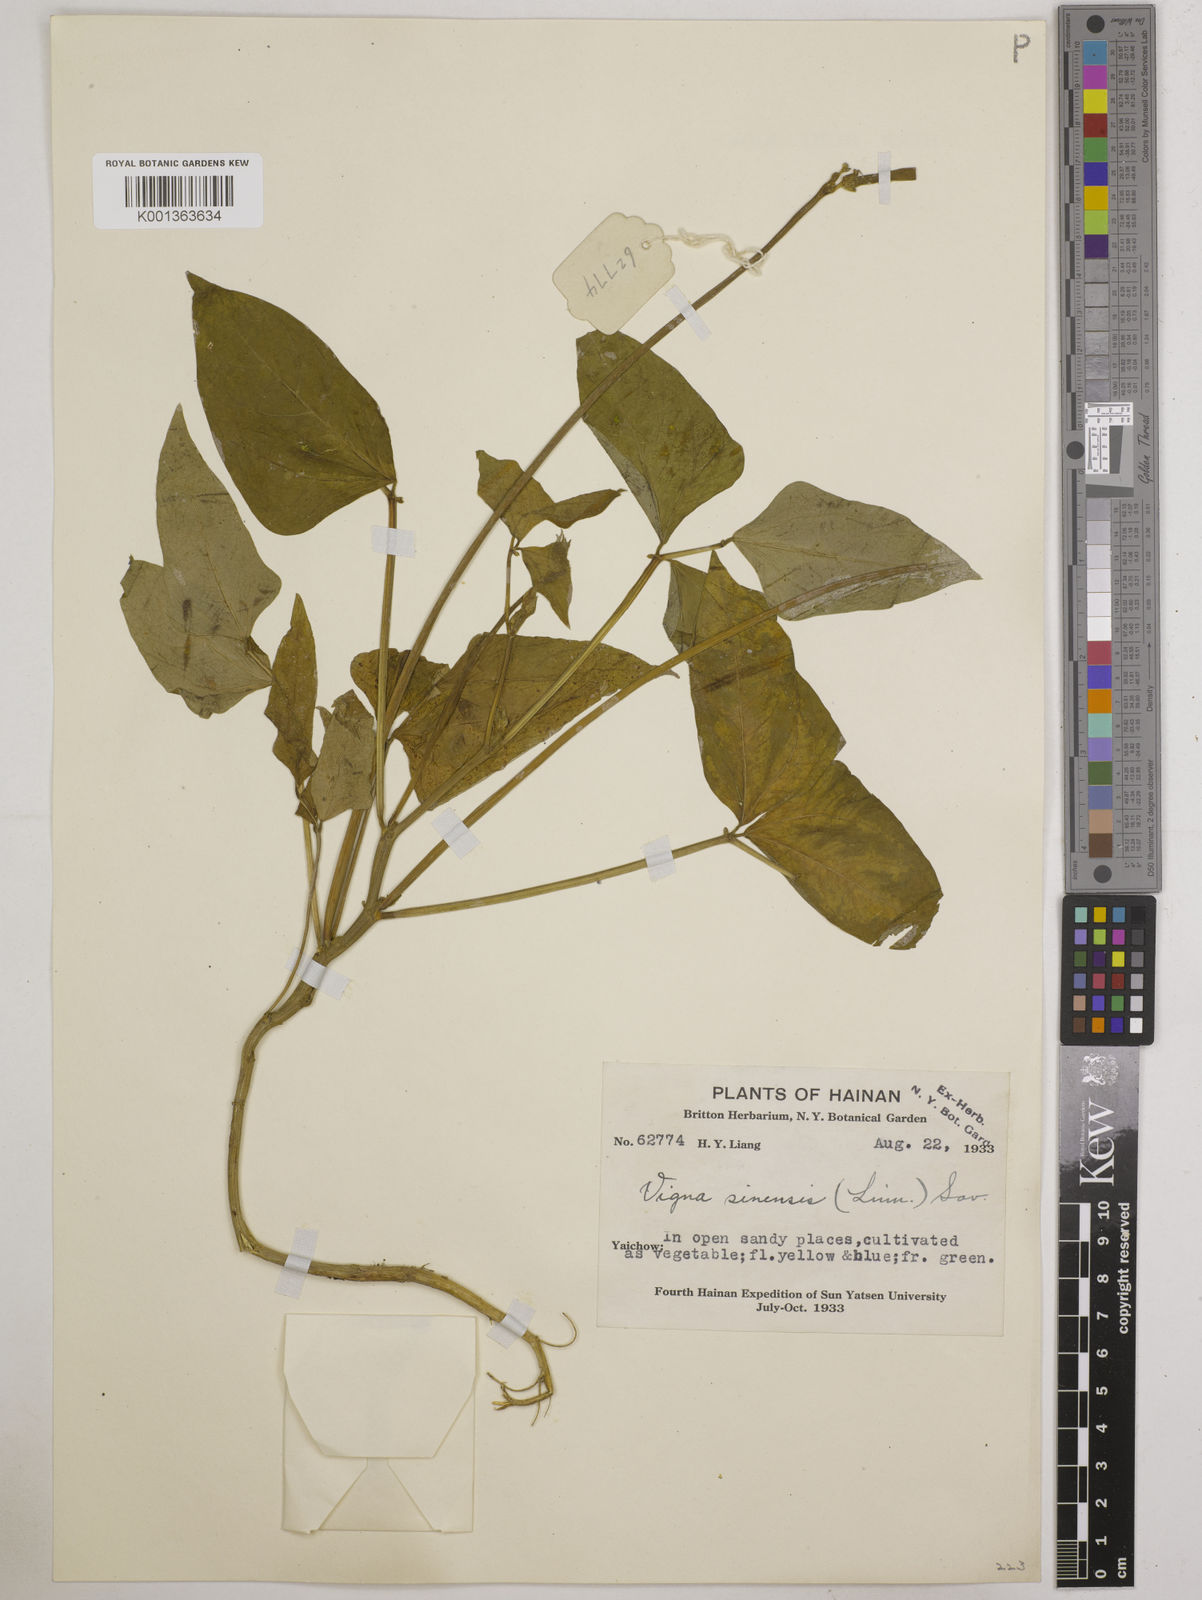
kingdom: Plantae
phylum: Tracheophyta
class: Magnoliopsida
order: Fabales
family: Fabaceae
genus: Vigna
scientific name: Vigna unguiculata
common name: Cowpea
